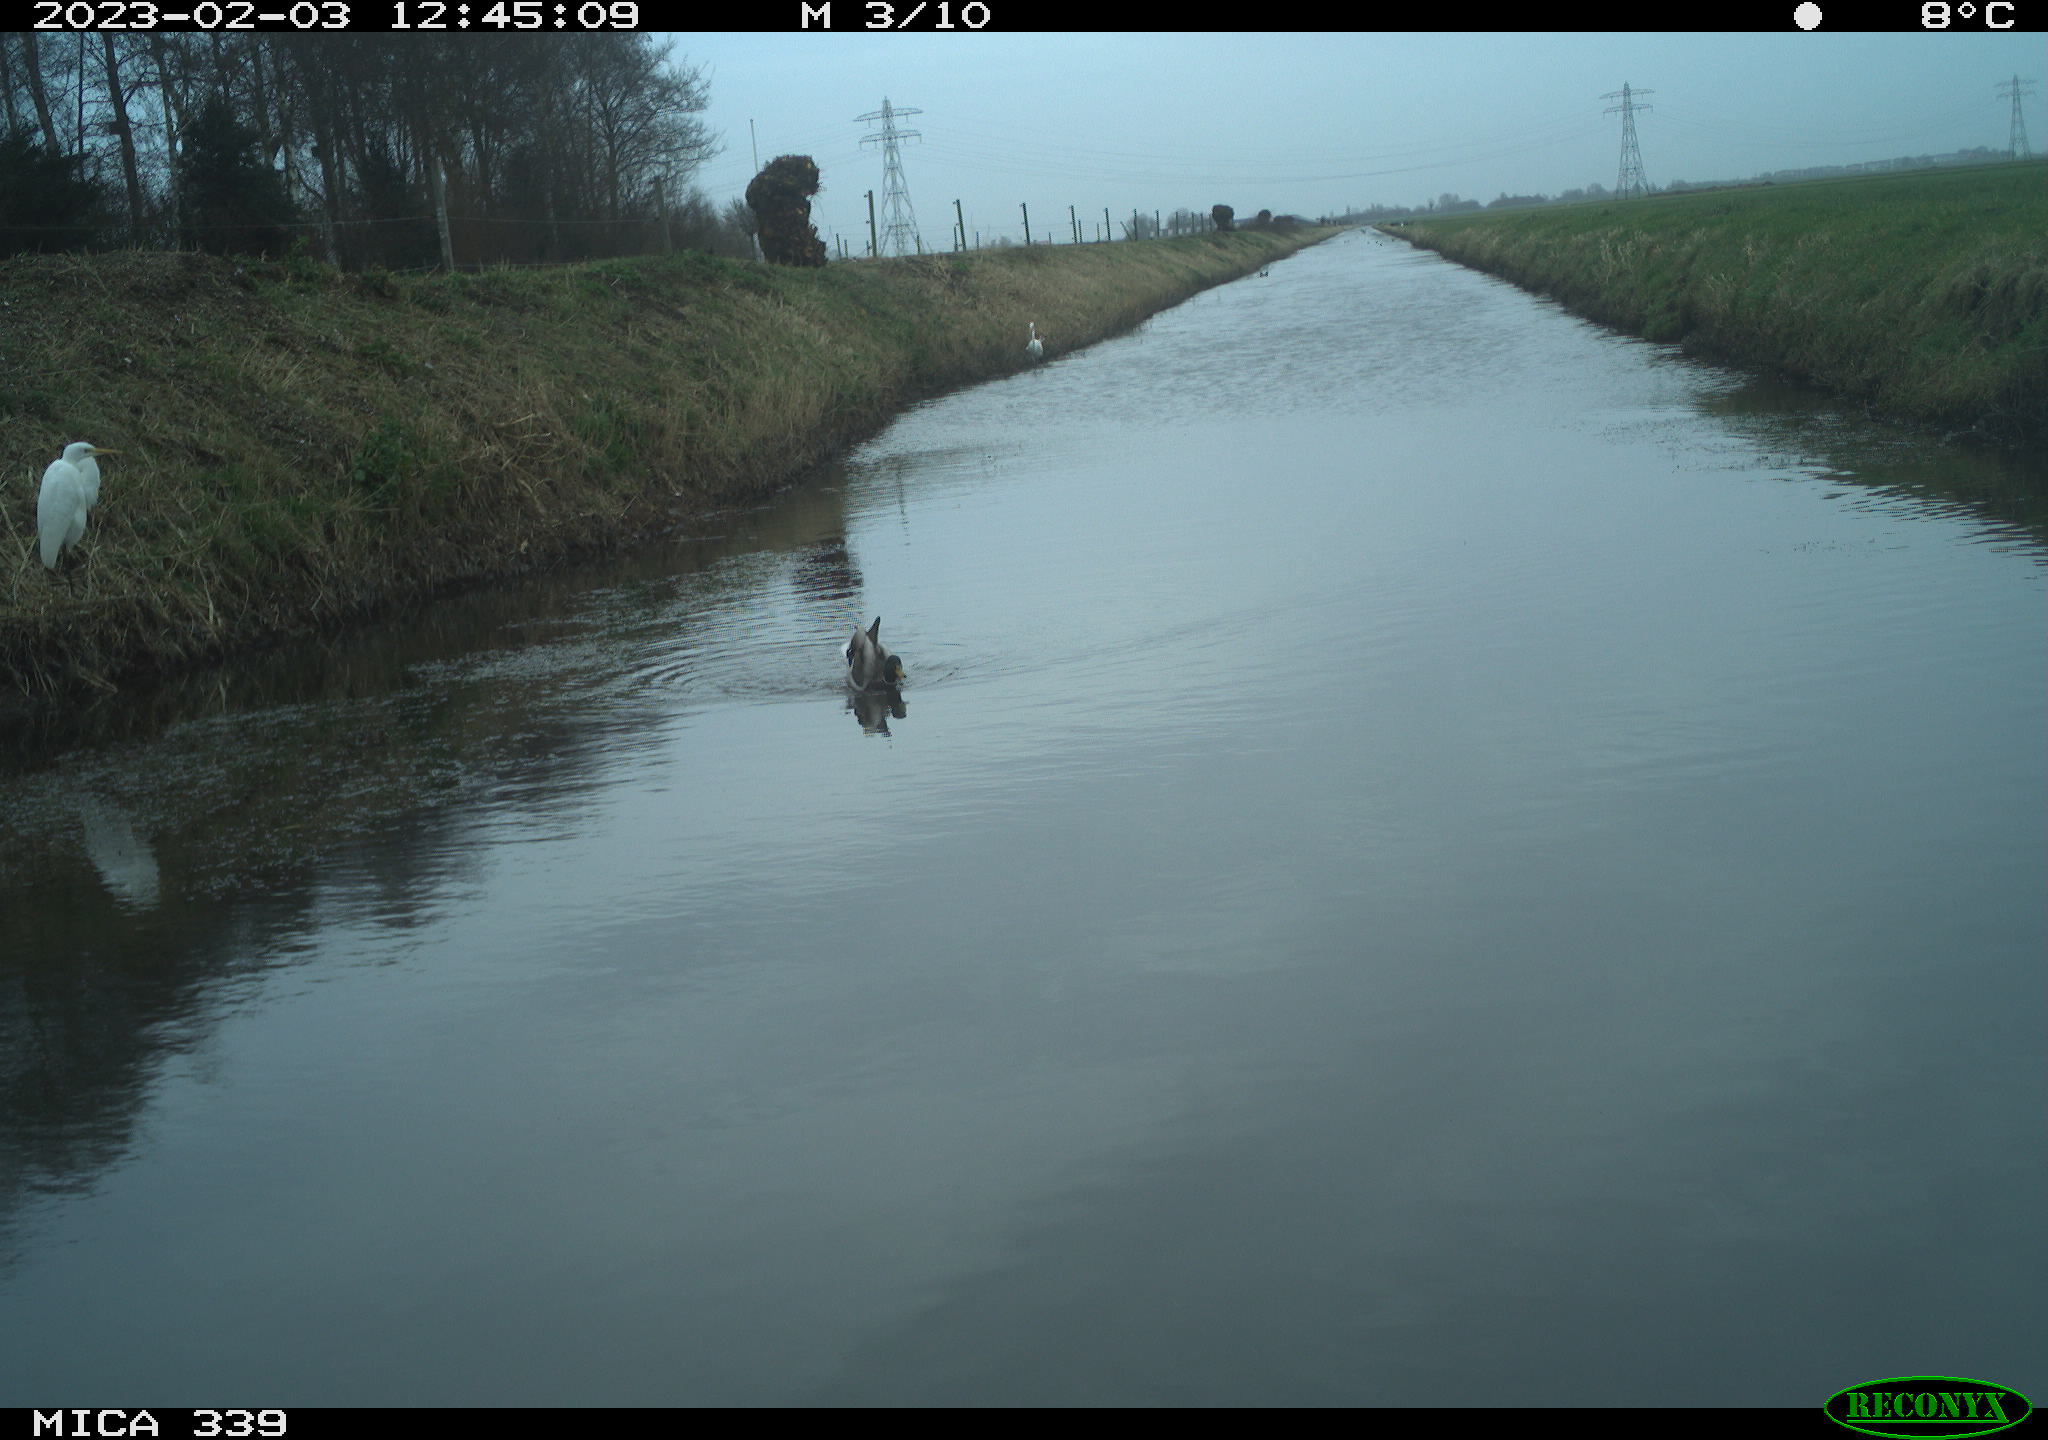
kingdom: Animalia
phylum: Chordata
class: Aves
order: Pelecaniformes
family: Ardeidae
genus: Ardea
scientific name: Ardea alba
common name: Great egret
